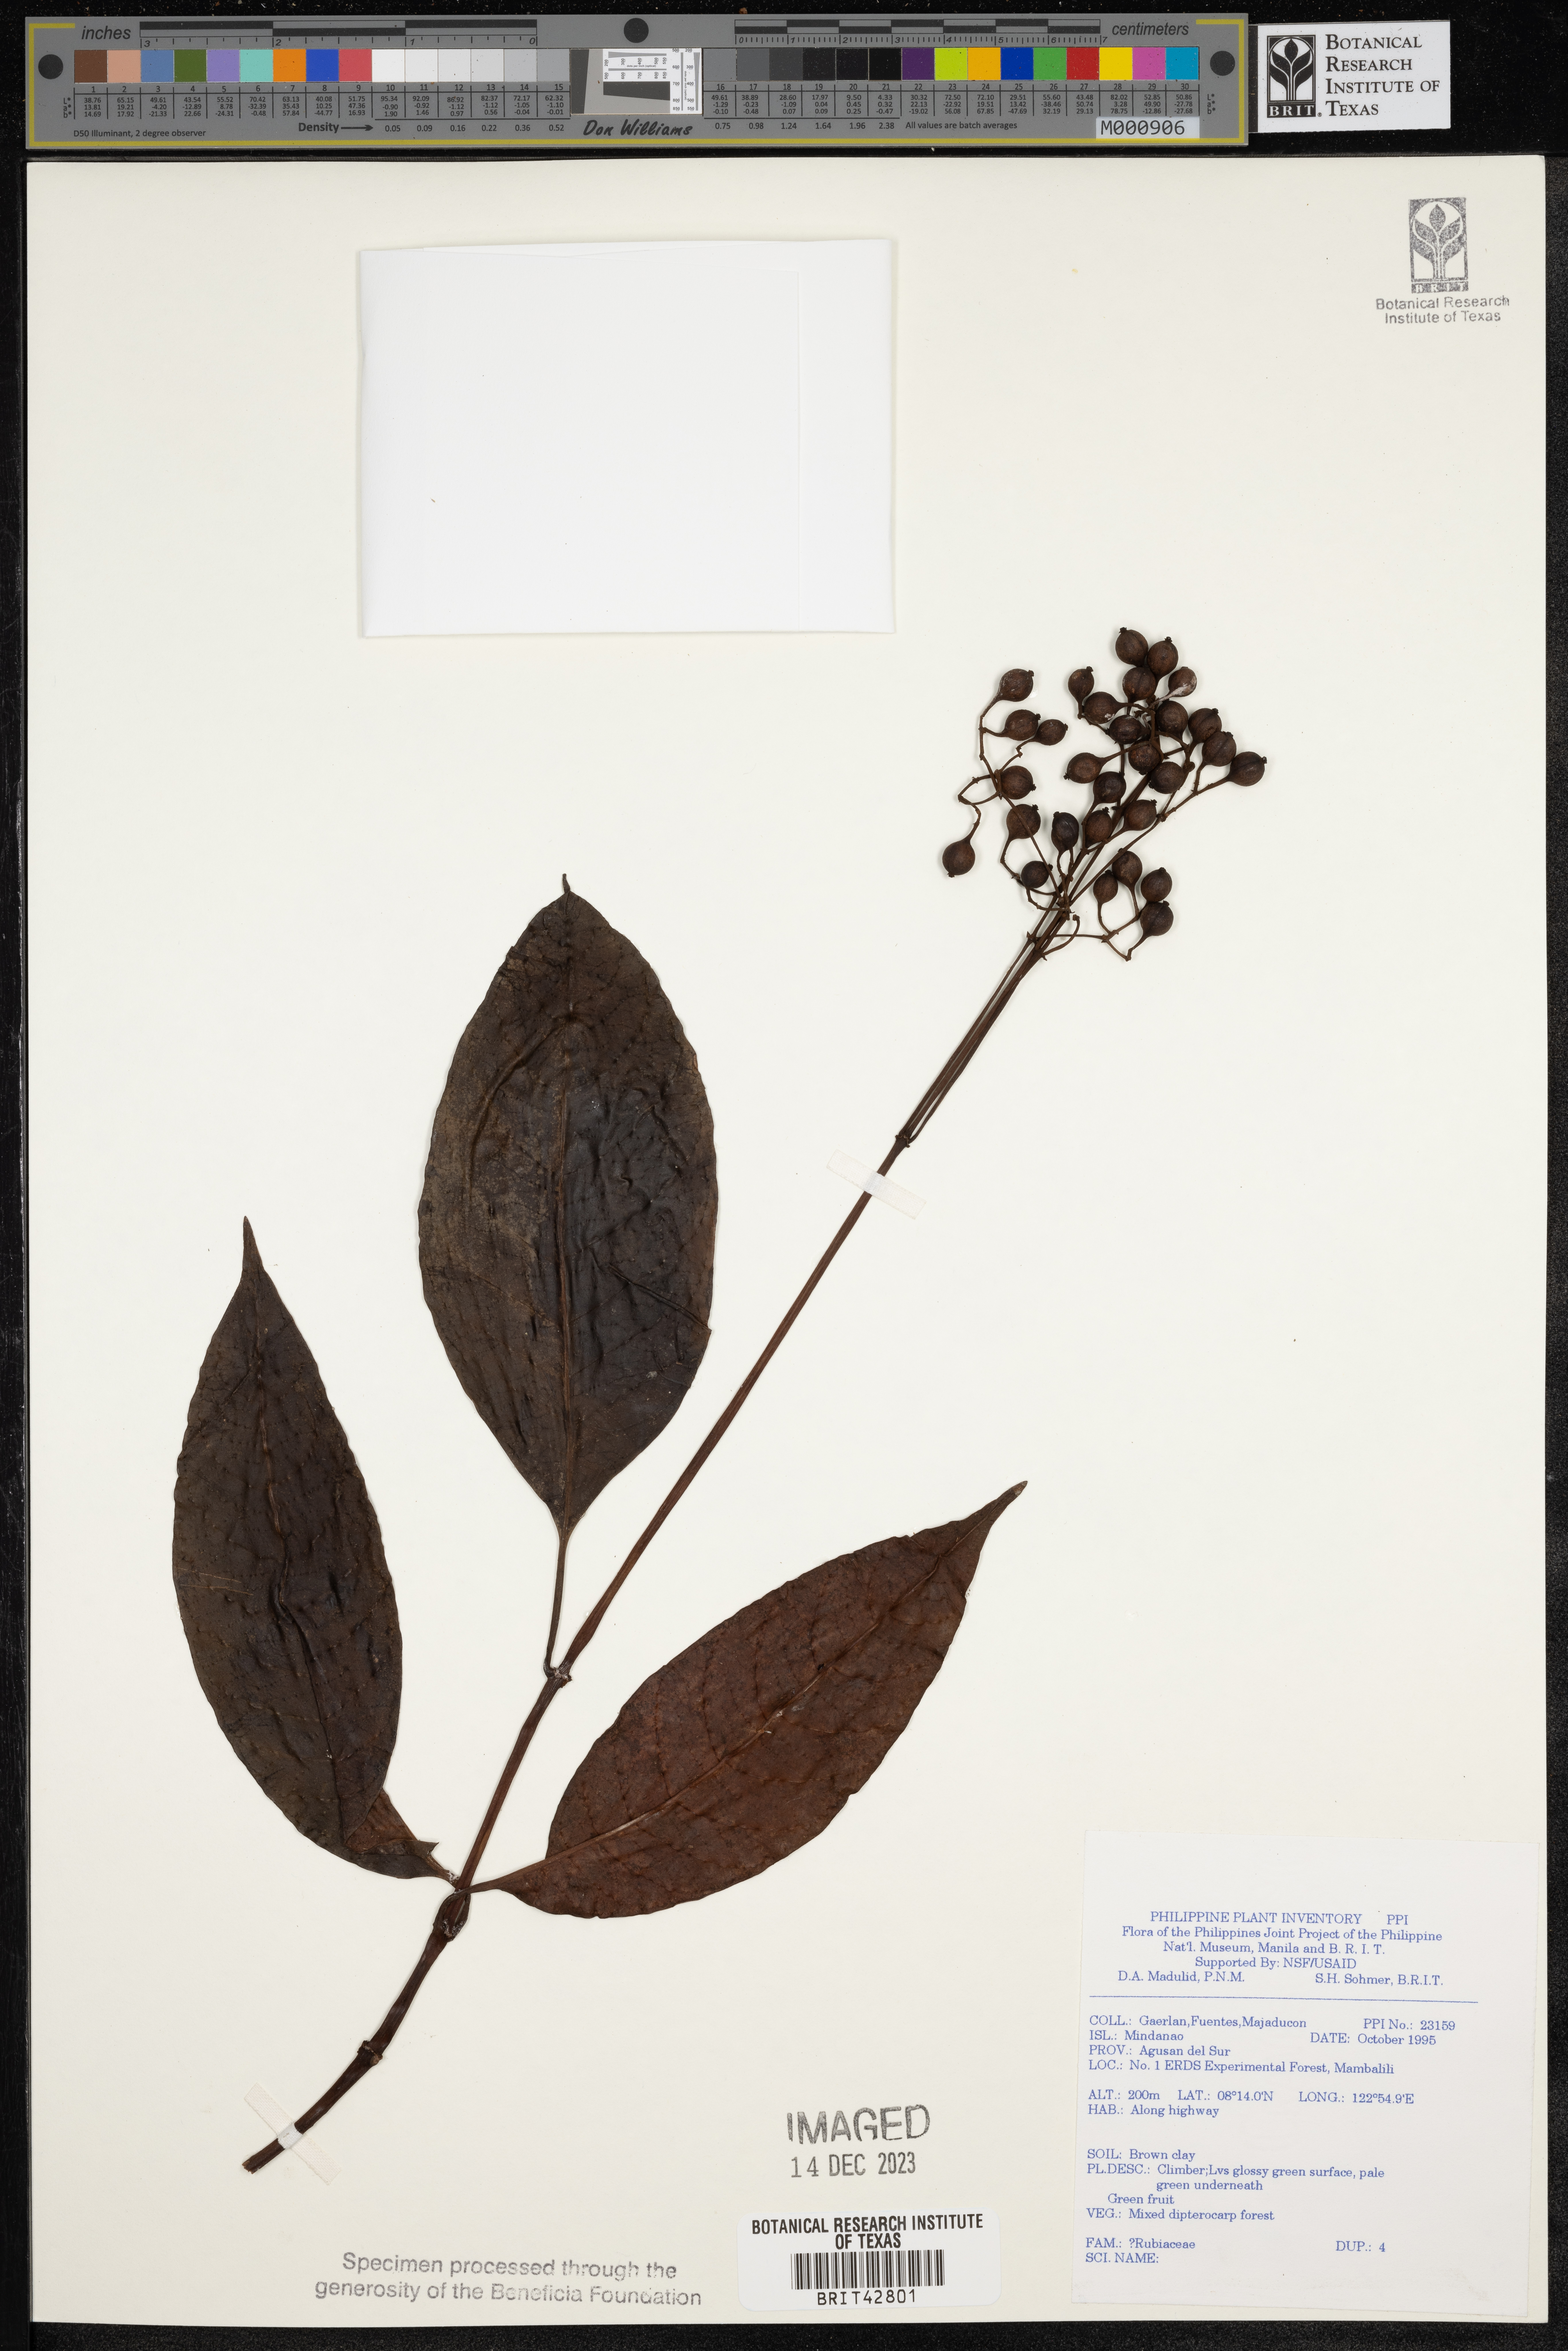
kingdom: Plantae
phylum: Tracheophyta
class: Magnoliopsida
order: Gentianales
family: Rubiaceae
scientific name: Rubiaceae
